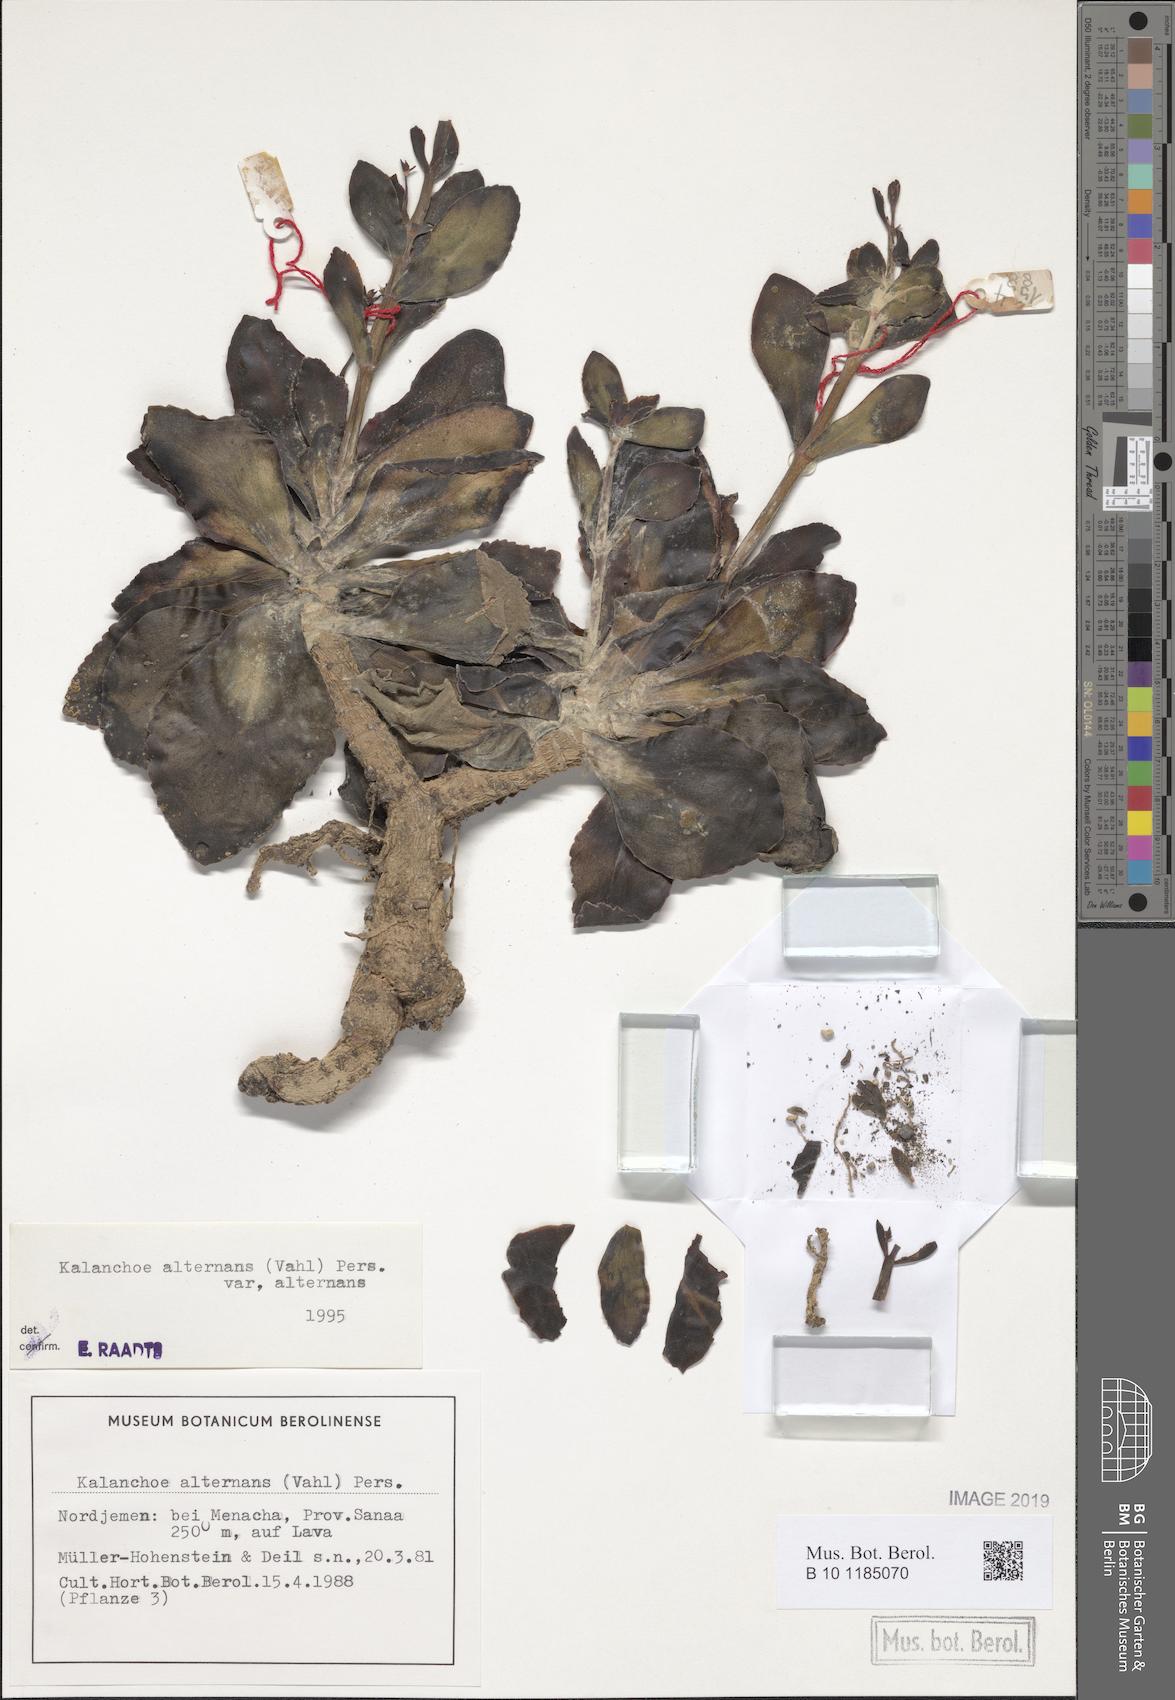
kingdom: Plantae
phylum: Tracheophyta
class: Magnoliopsida
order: Saxifragales
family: Crassulaceae
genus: Kalanchoe
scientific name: Kalanchoe alternans
